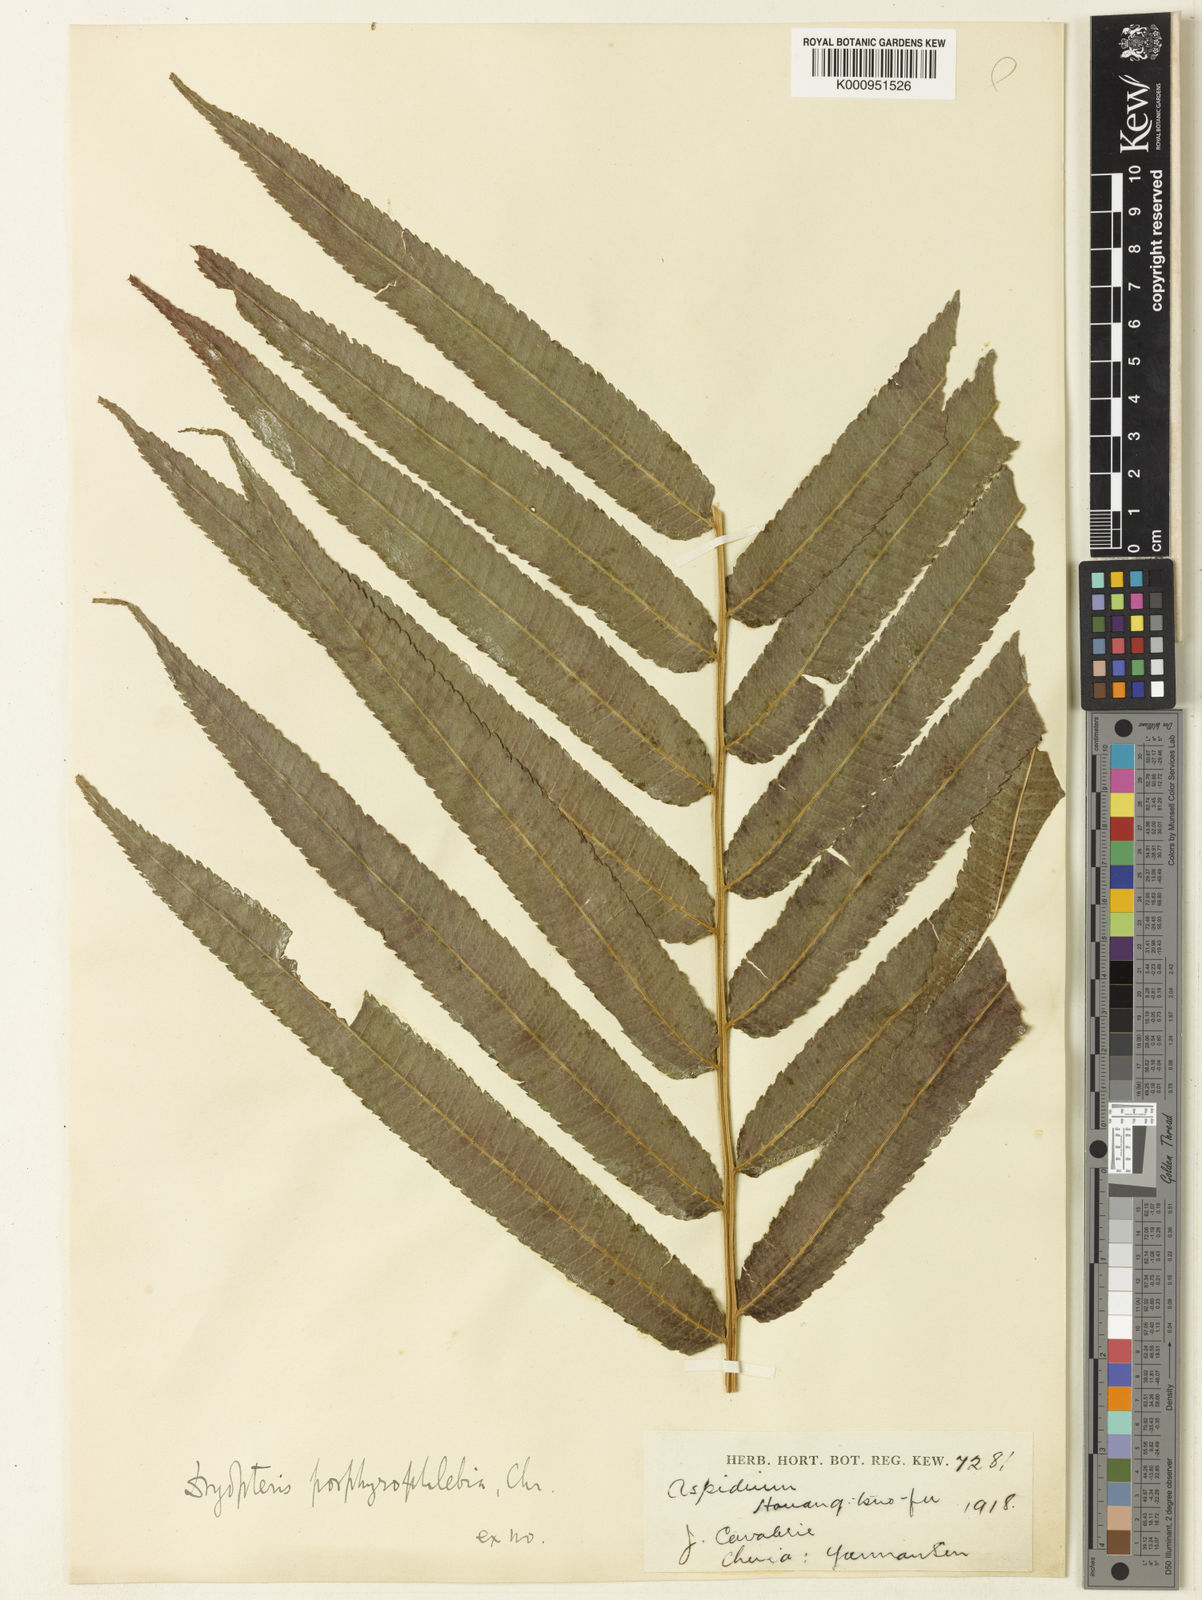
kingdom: Plantae
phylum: Tracheophyta
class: Polypodiopsida
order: Polypodiales
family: Thelypteridaceae
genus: Menisciopsis
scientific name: Menisciopsis penangiana
